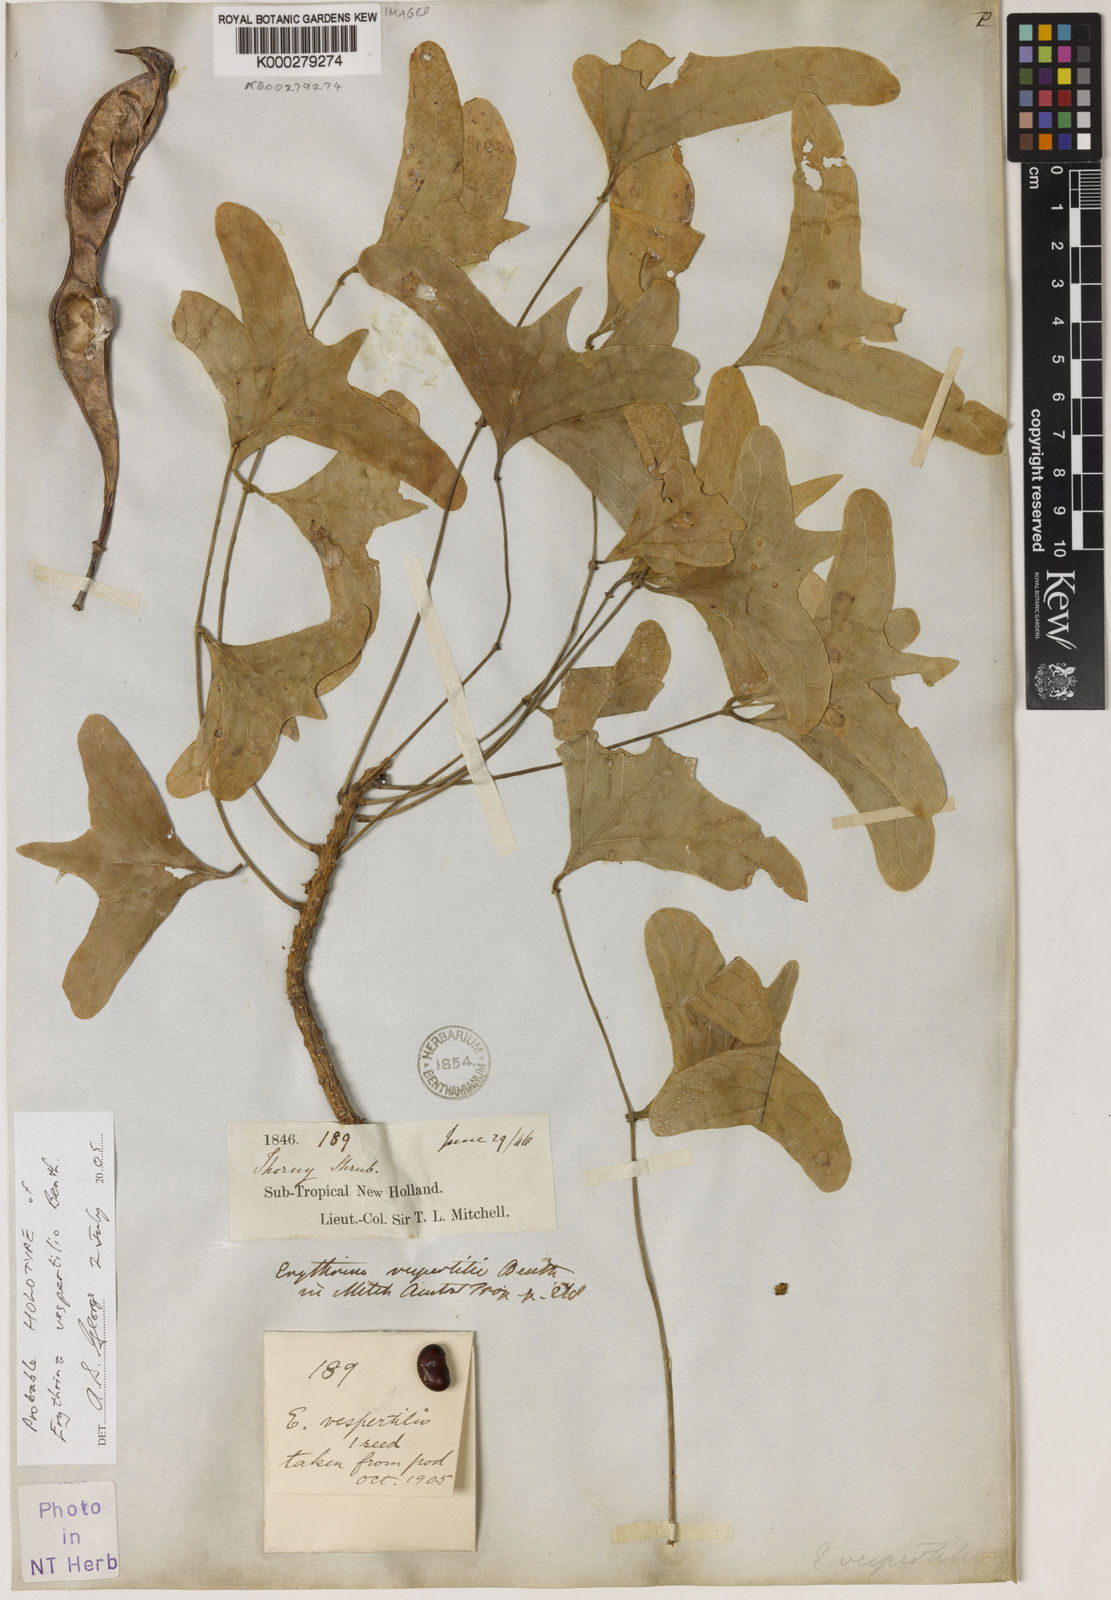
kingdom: Plantae
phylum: Tracheophyta
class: Magnoliopsida
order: Fabales
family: Fabaceae
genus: Erythrina
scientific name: Erythrina vespertilio
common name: Bat-wing coral tree
